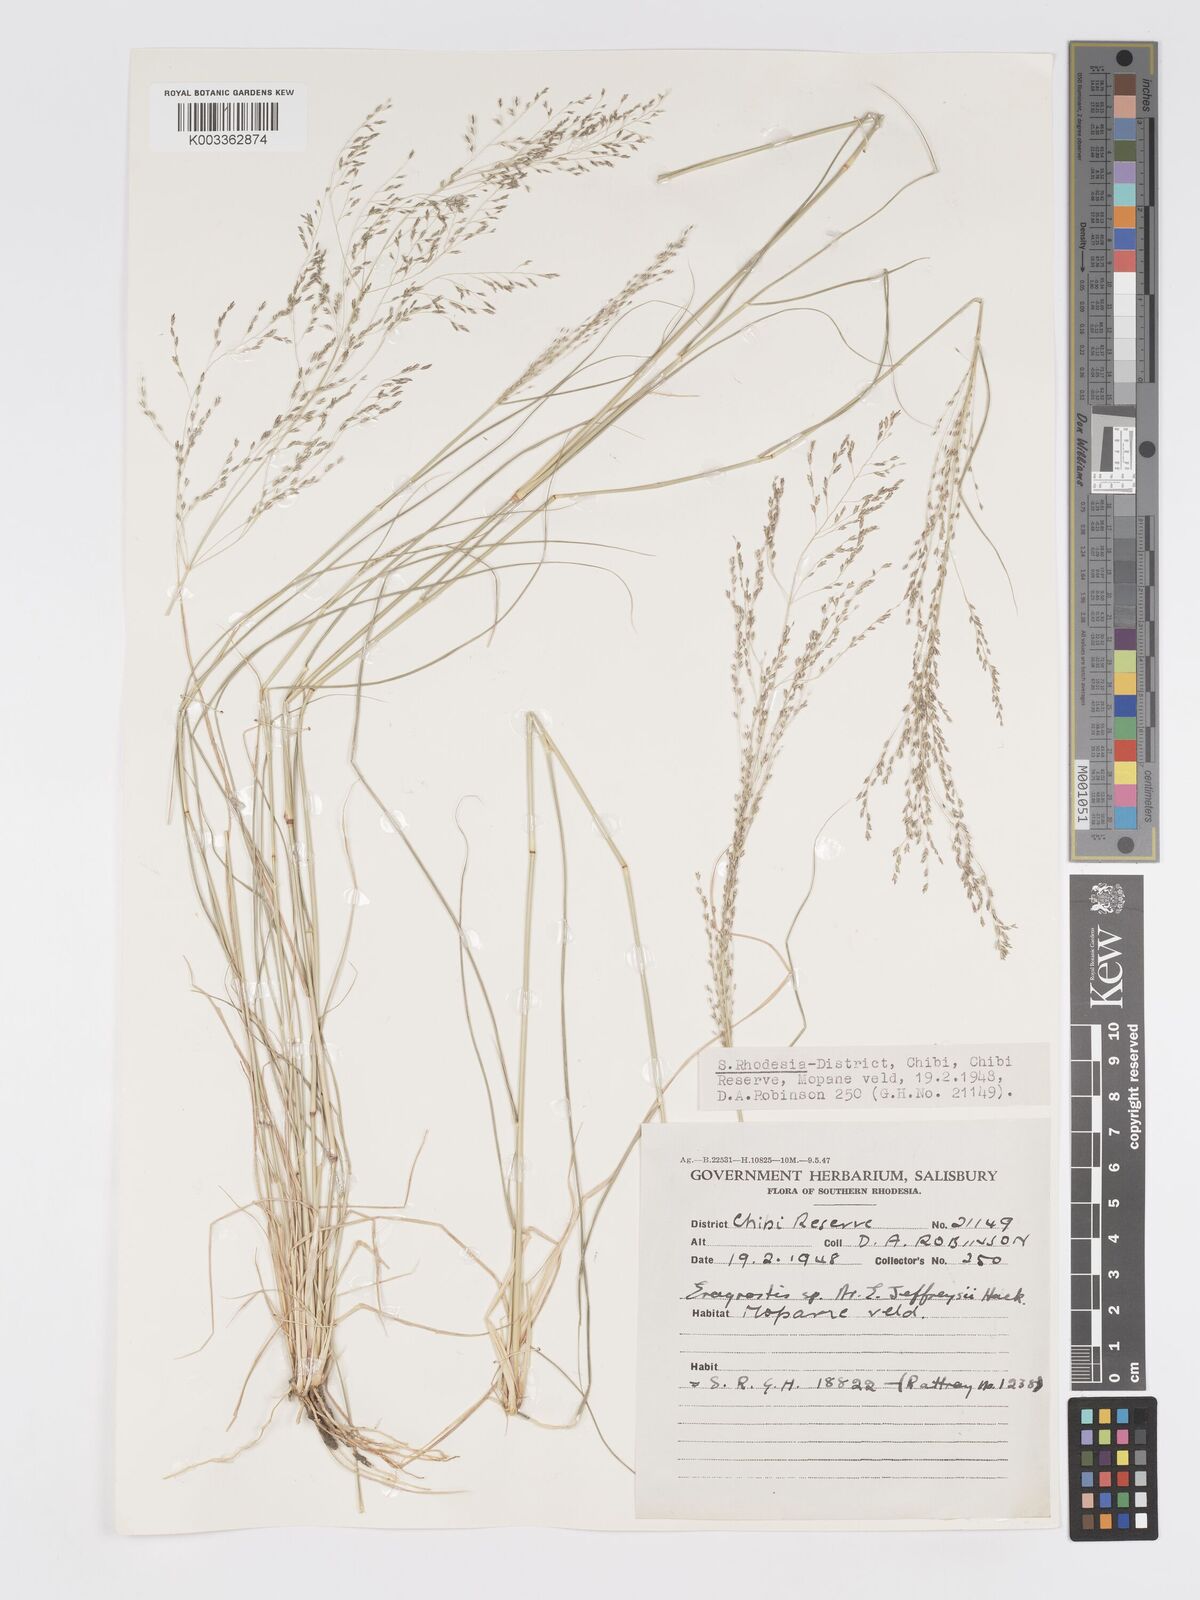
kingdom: Plantae
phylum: Tracheophyta
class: Liliopsida
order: Poales
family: Poaceae
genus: Eragrostis
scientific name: Eragrostis cylindriflora
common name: Cylinderflower lovegrass
